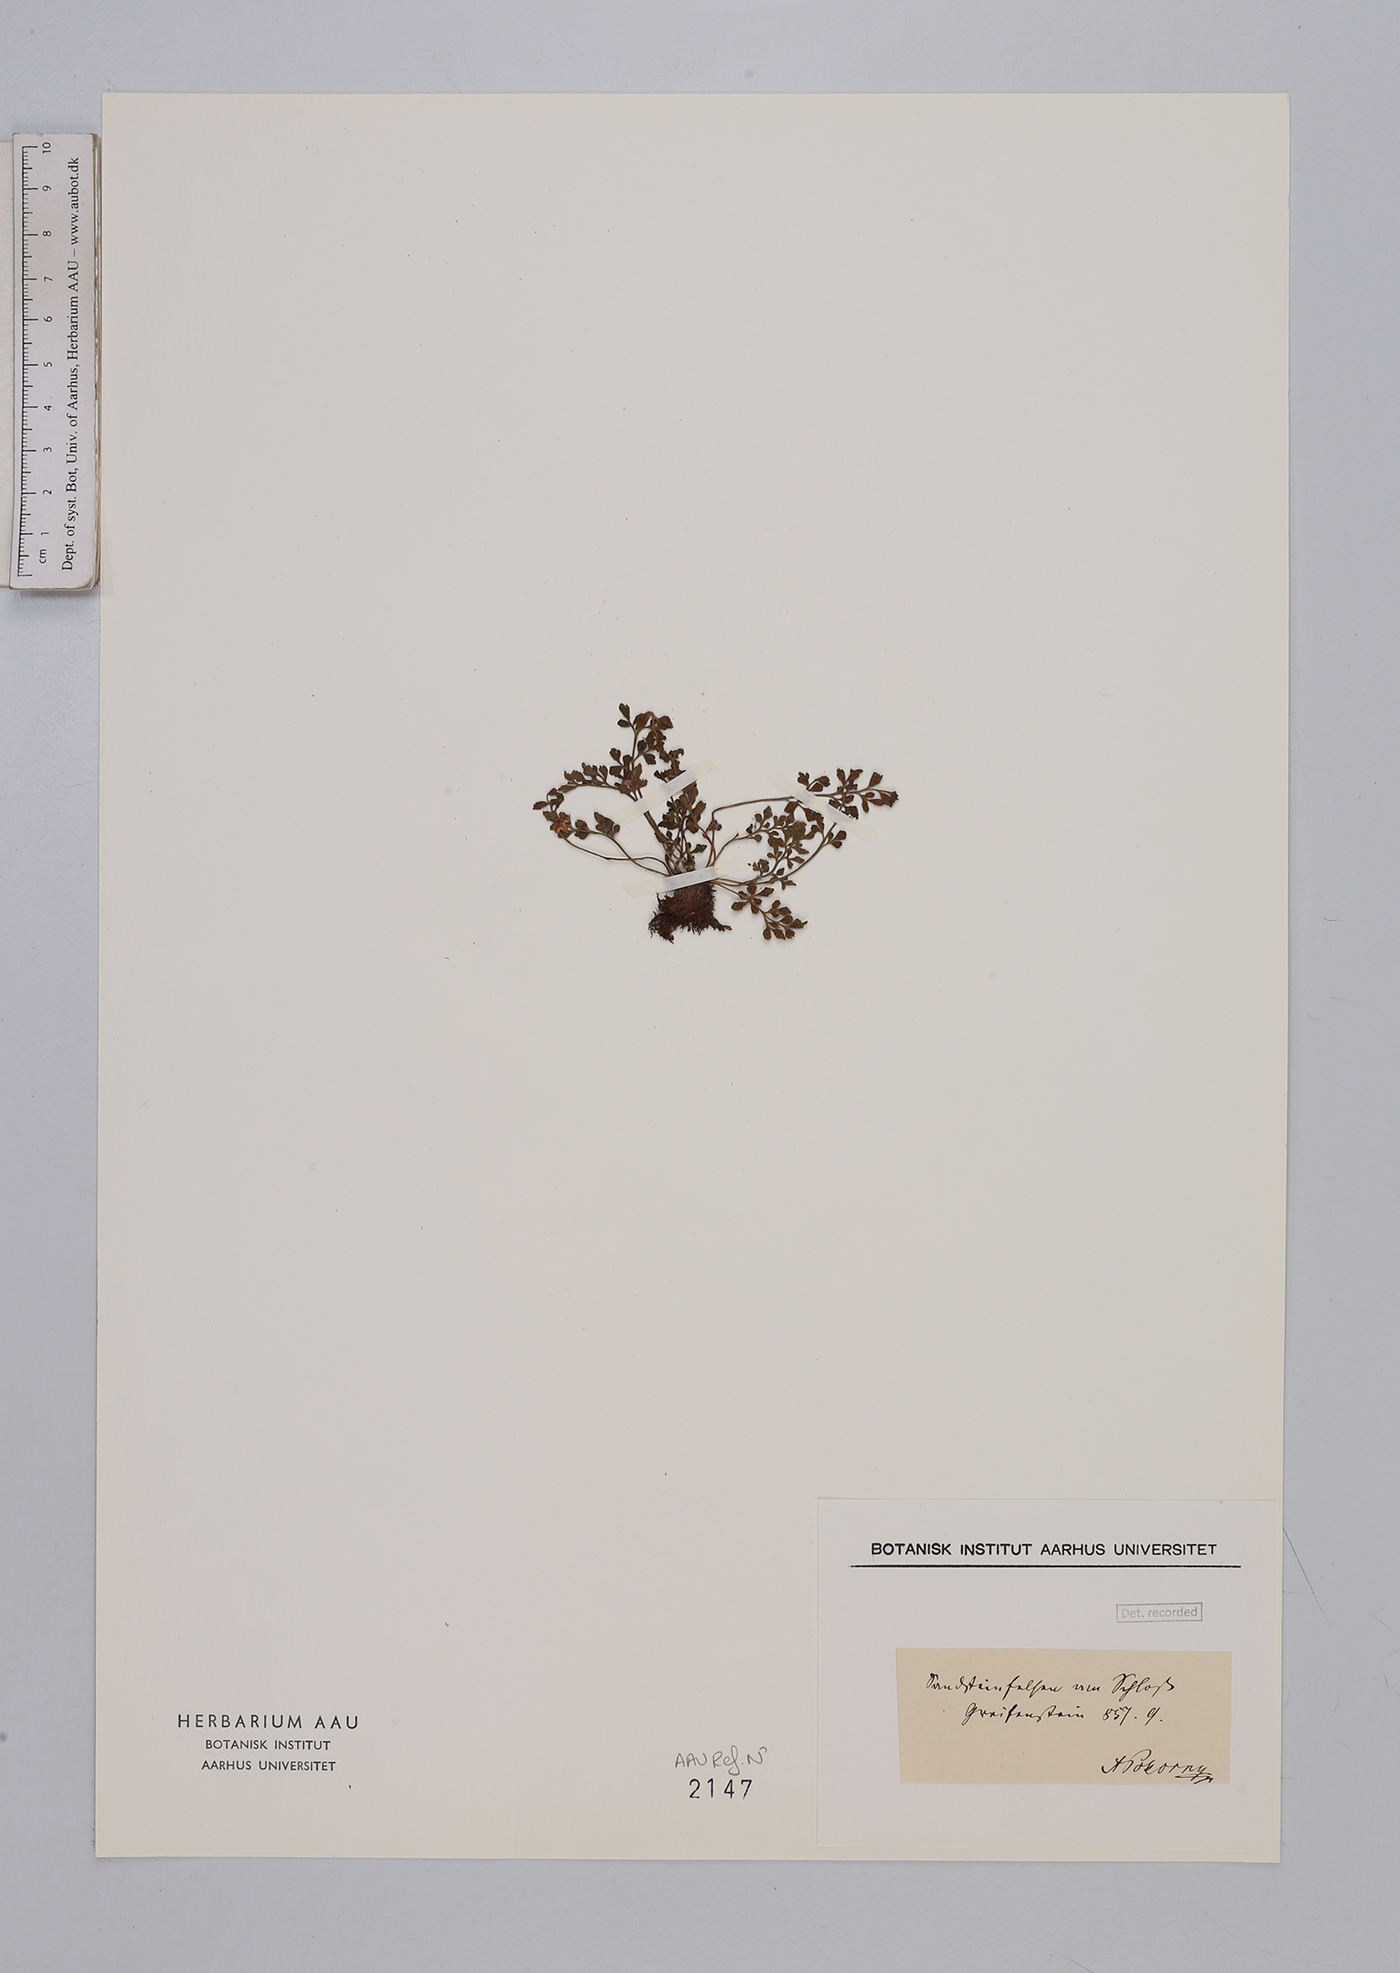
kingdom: Plantae
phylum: Tracheophyta
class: Polypodiopsida
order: Polypodiales
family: Aspleniaceae
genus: Asplenium
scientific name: Asplenium ruta-muraria
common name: Wall-rue
